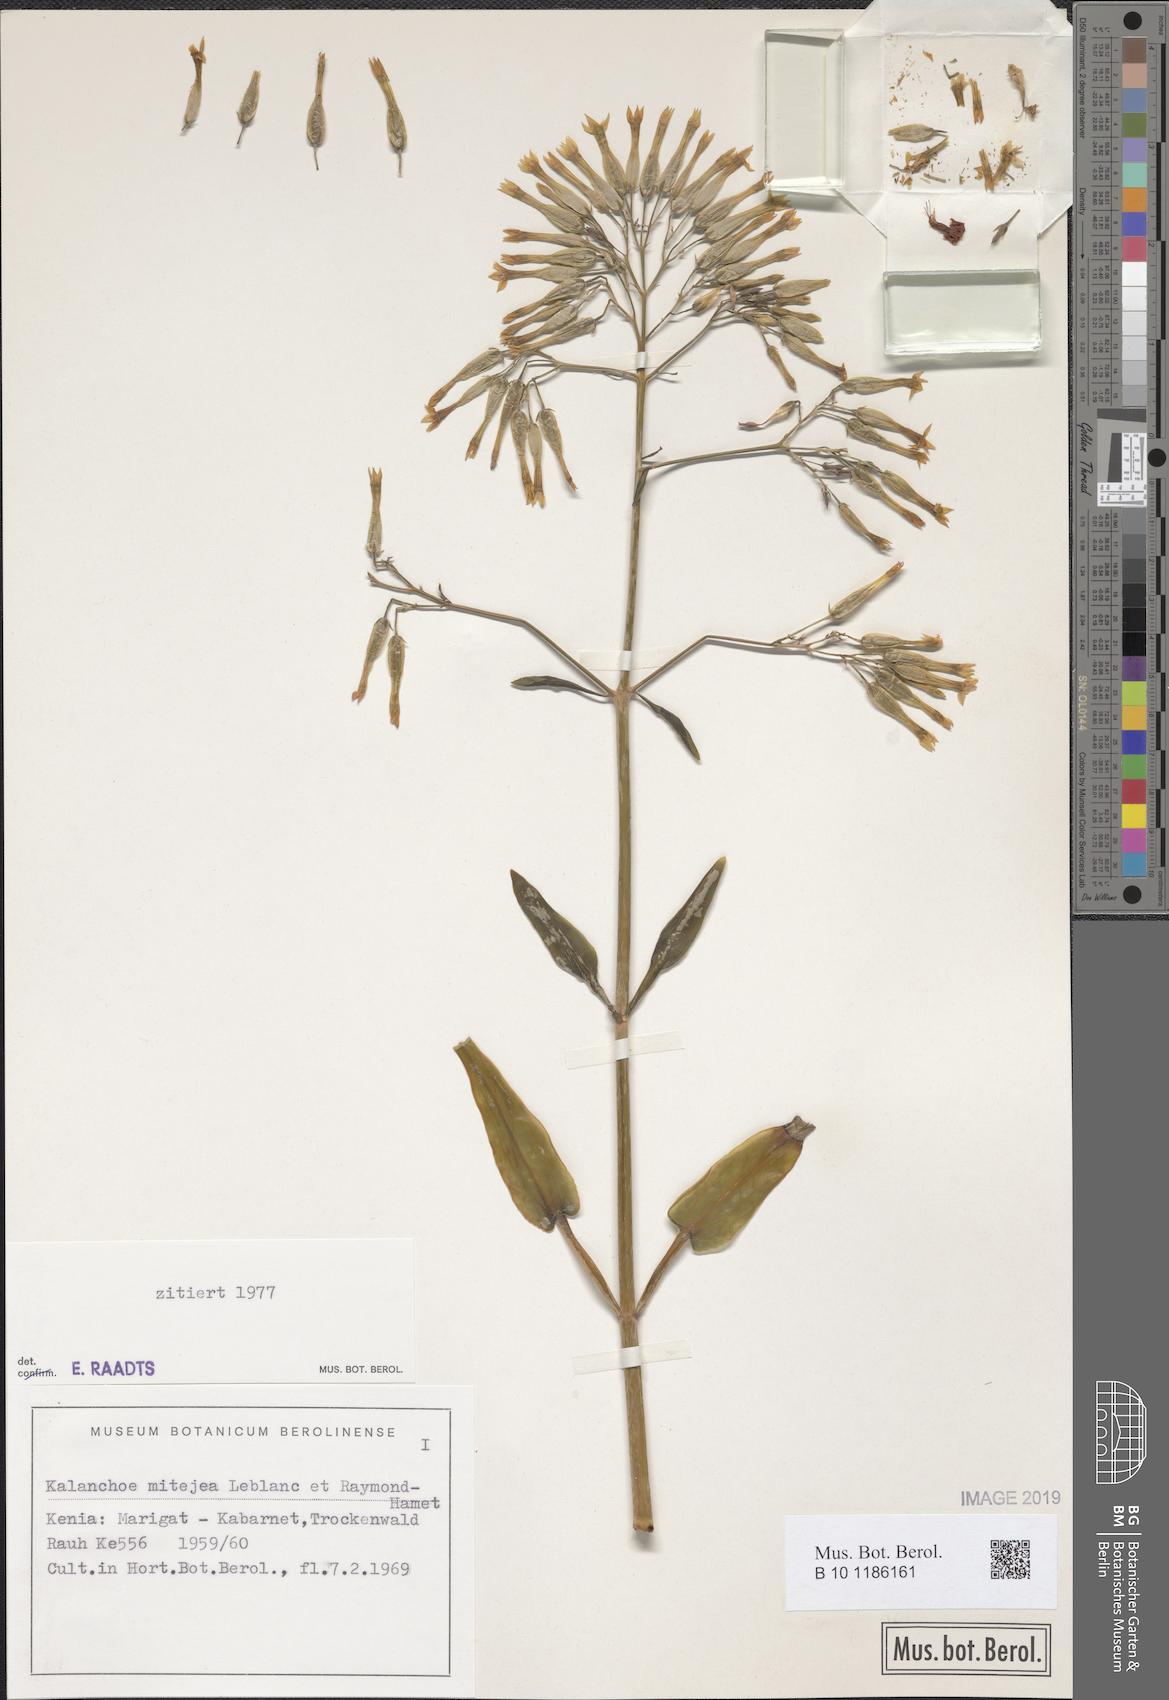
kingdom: Plantae
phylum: Tracheophyta
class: Magnoliopsida
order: Saxifragales
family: Crassulaceae
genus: Kalanchoe
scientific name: Kalanchoe mitejea
